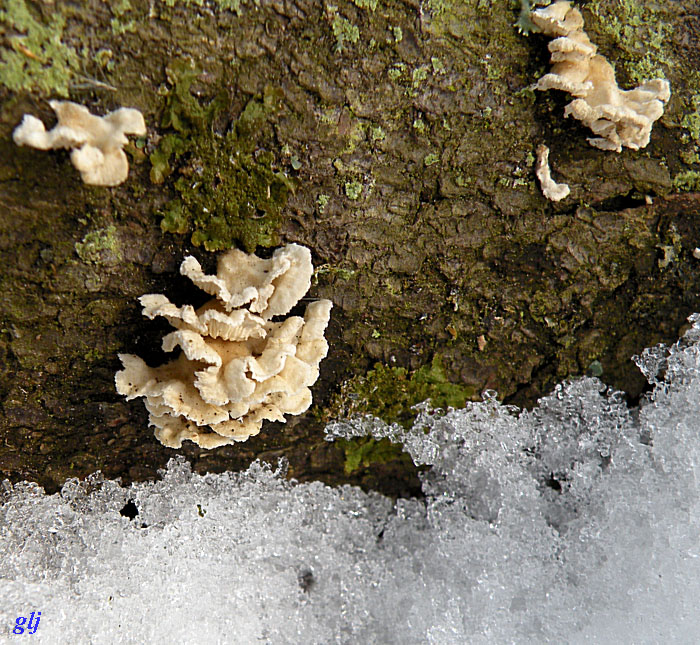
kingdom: Fungi
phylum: Basidiomycota
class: Agaricomycetes
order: Amylocorticiales
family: Amylocorticiaceae
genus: Plicaturopsis
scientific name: Plicaturopsis crispa
